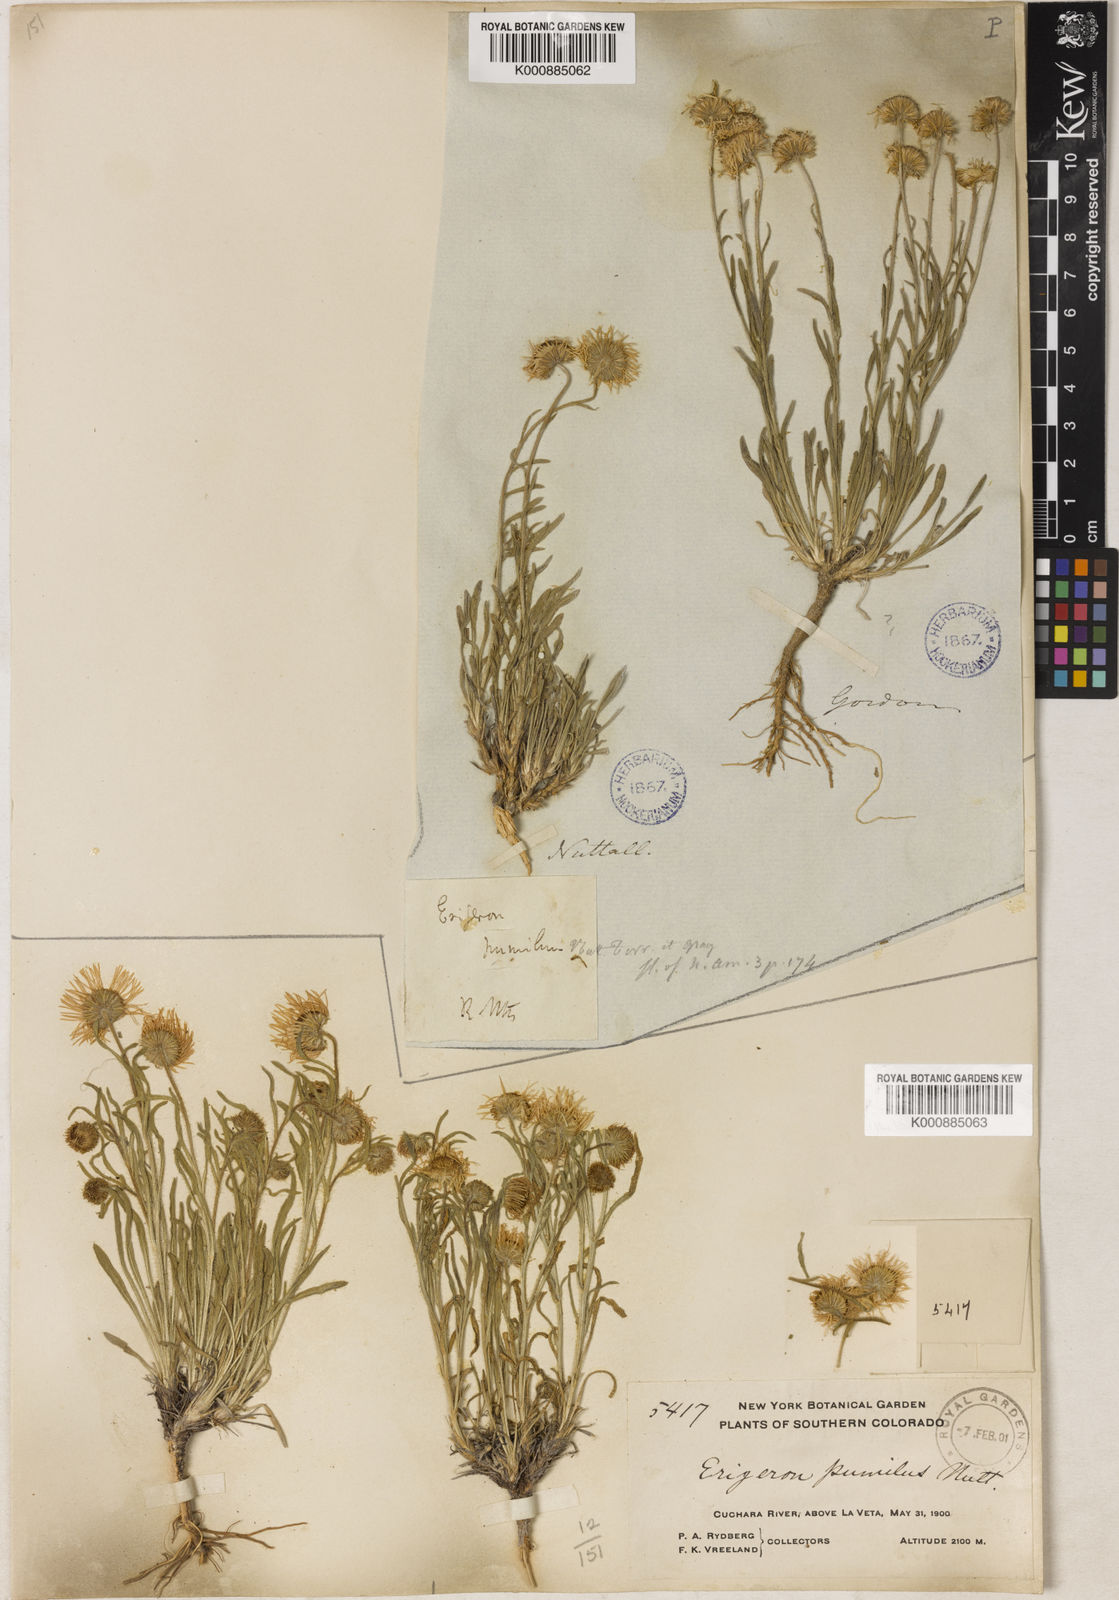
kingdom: Plantae
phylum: Tracheophyta
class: Magnoliopsida
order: Asterales
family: Asteraceae
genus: Erigeron
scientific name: Erigeron pumilus
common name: Shaggy fleabane
